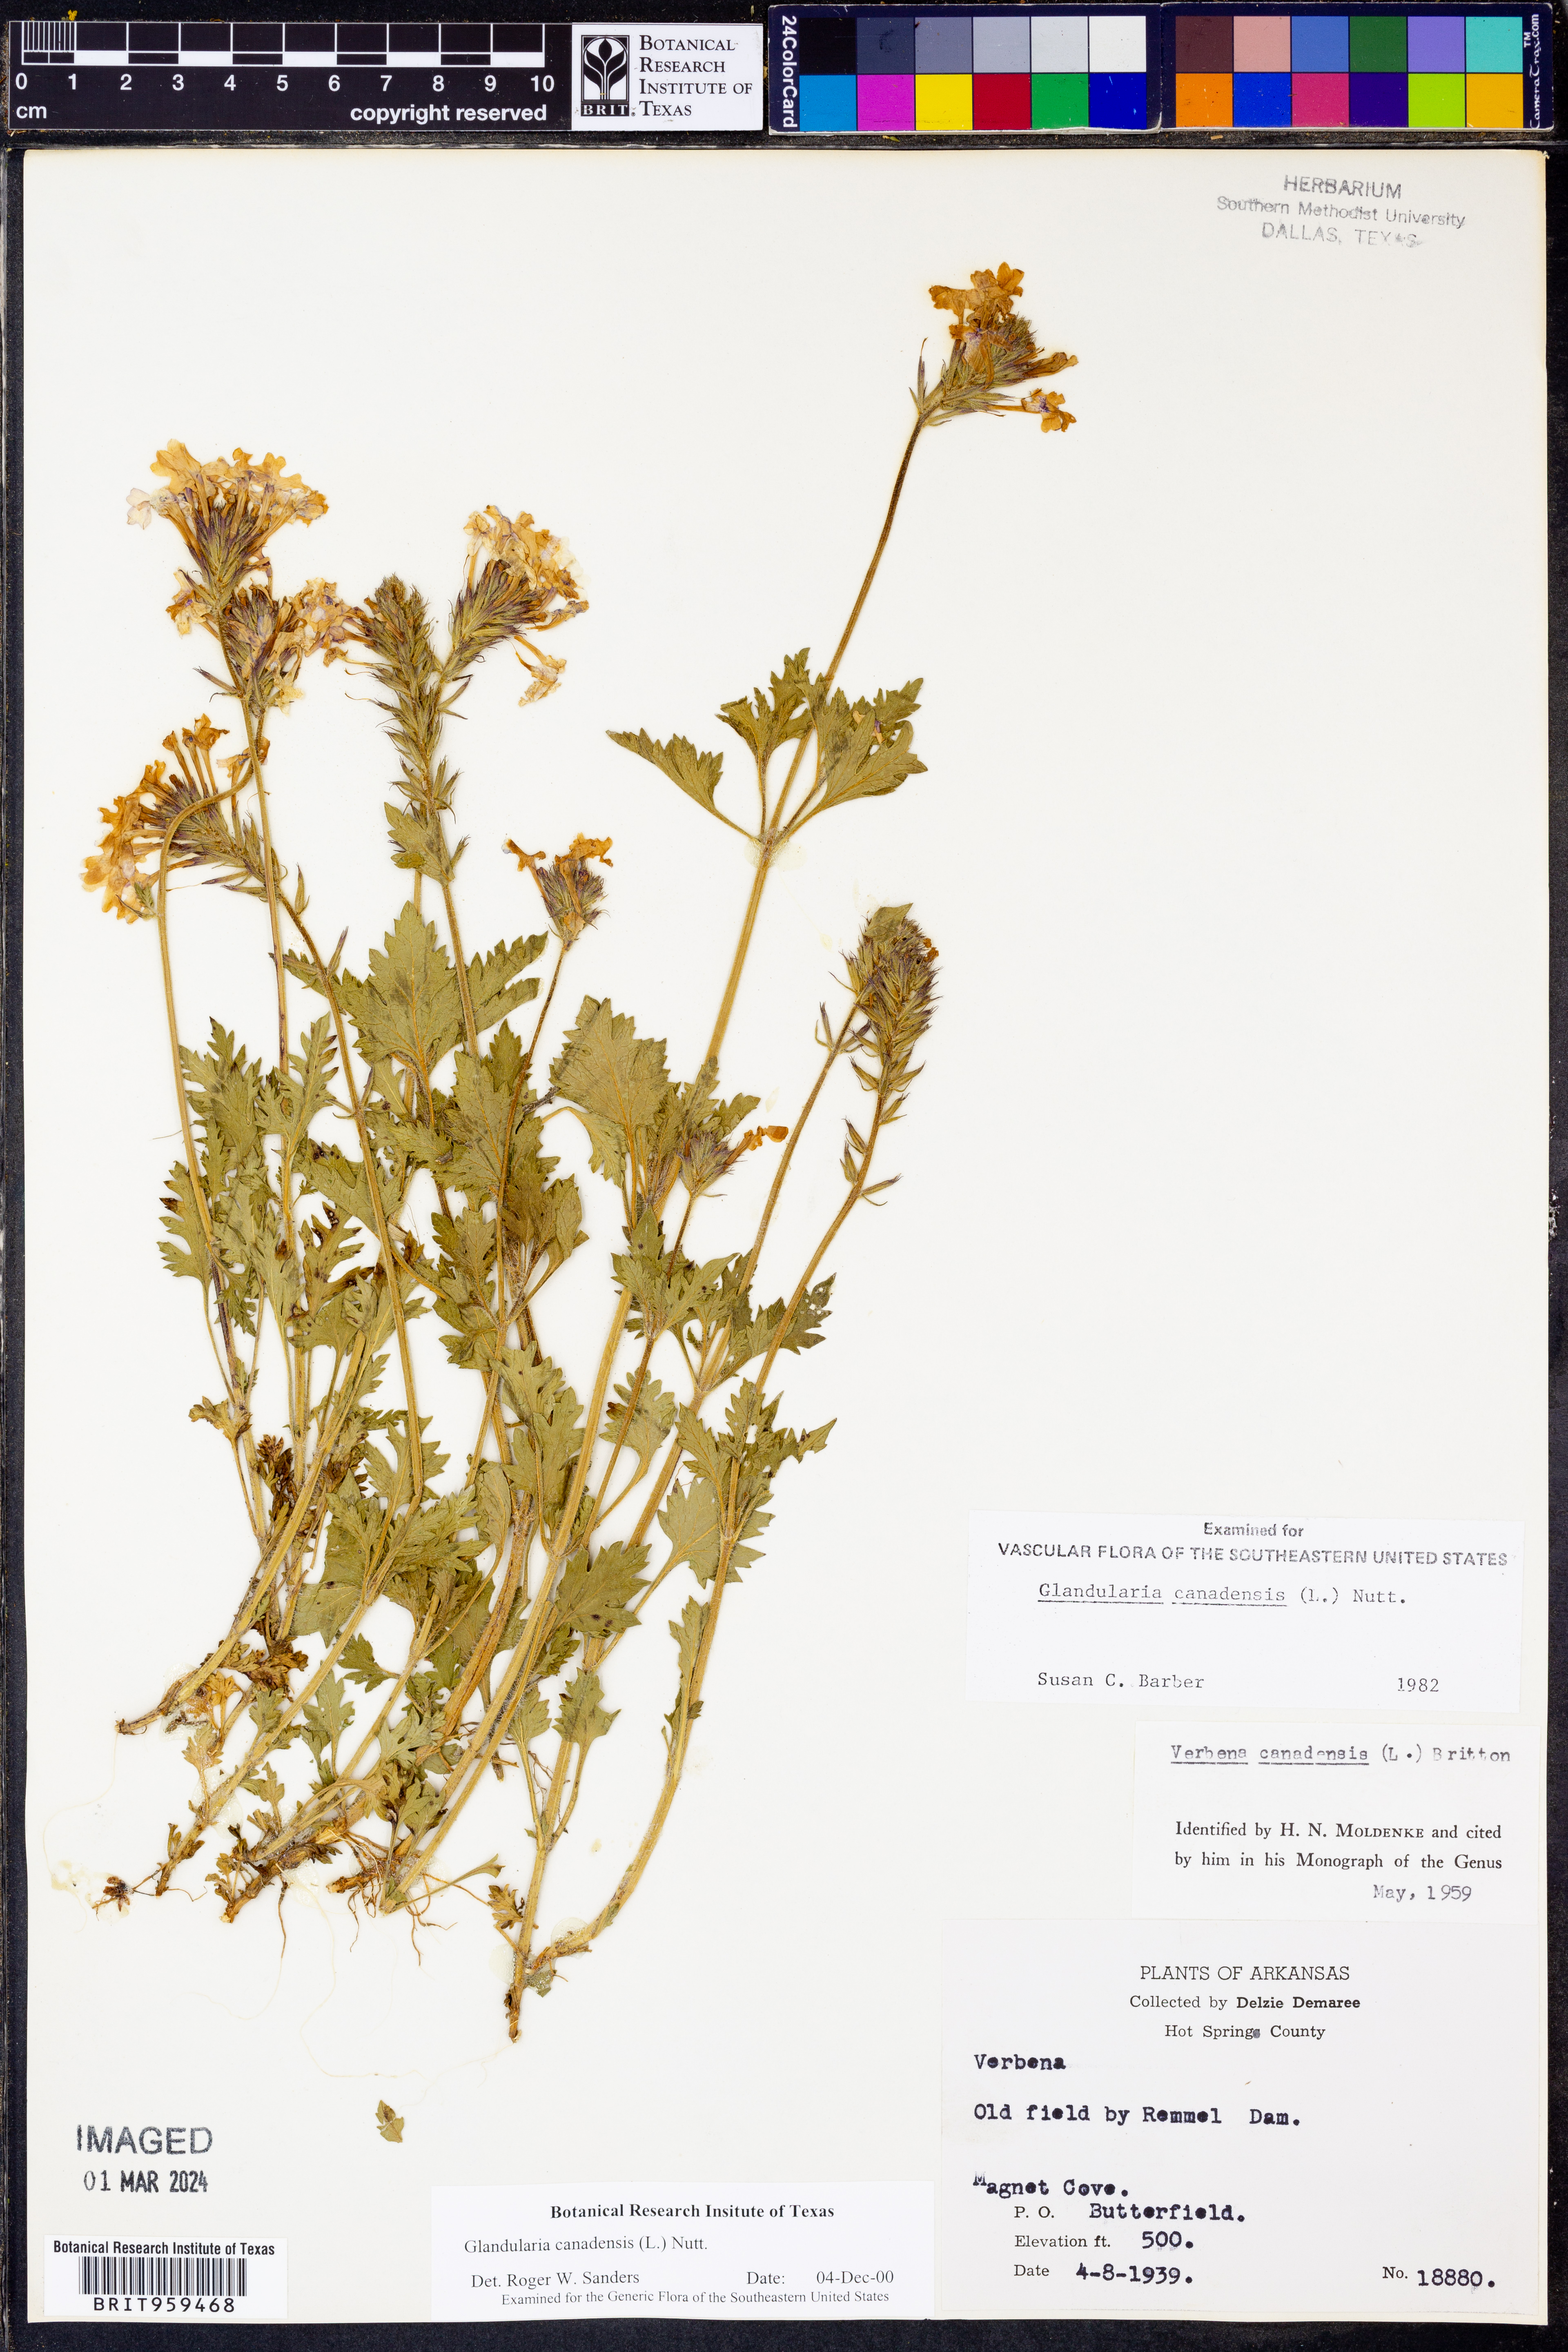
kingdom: Plantae
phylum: Tracheophyta
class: Magnoliopsida
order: Lamiales
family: Verbenaceae
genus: Verbena
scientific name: Verbena canadensis
